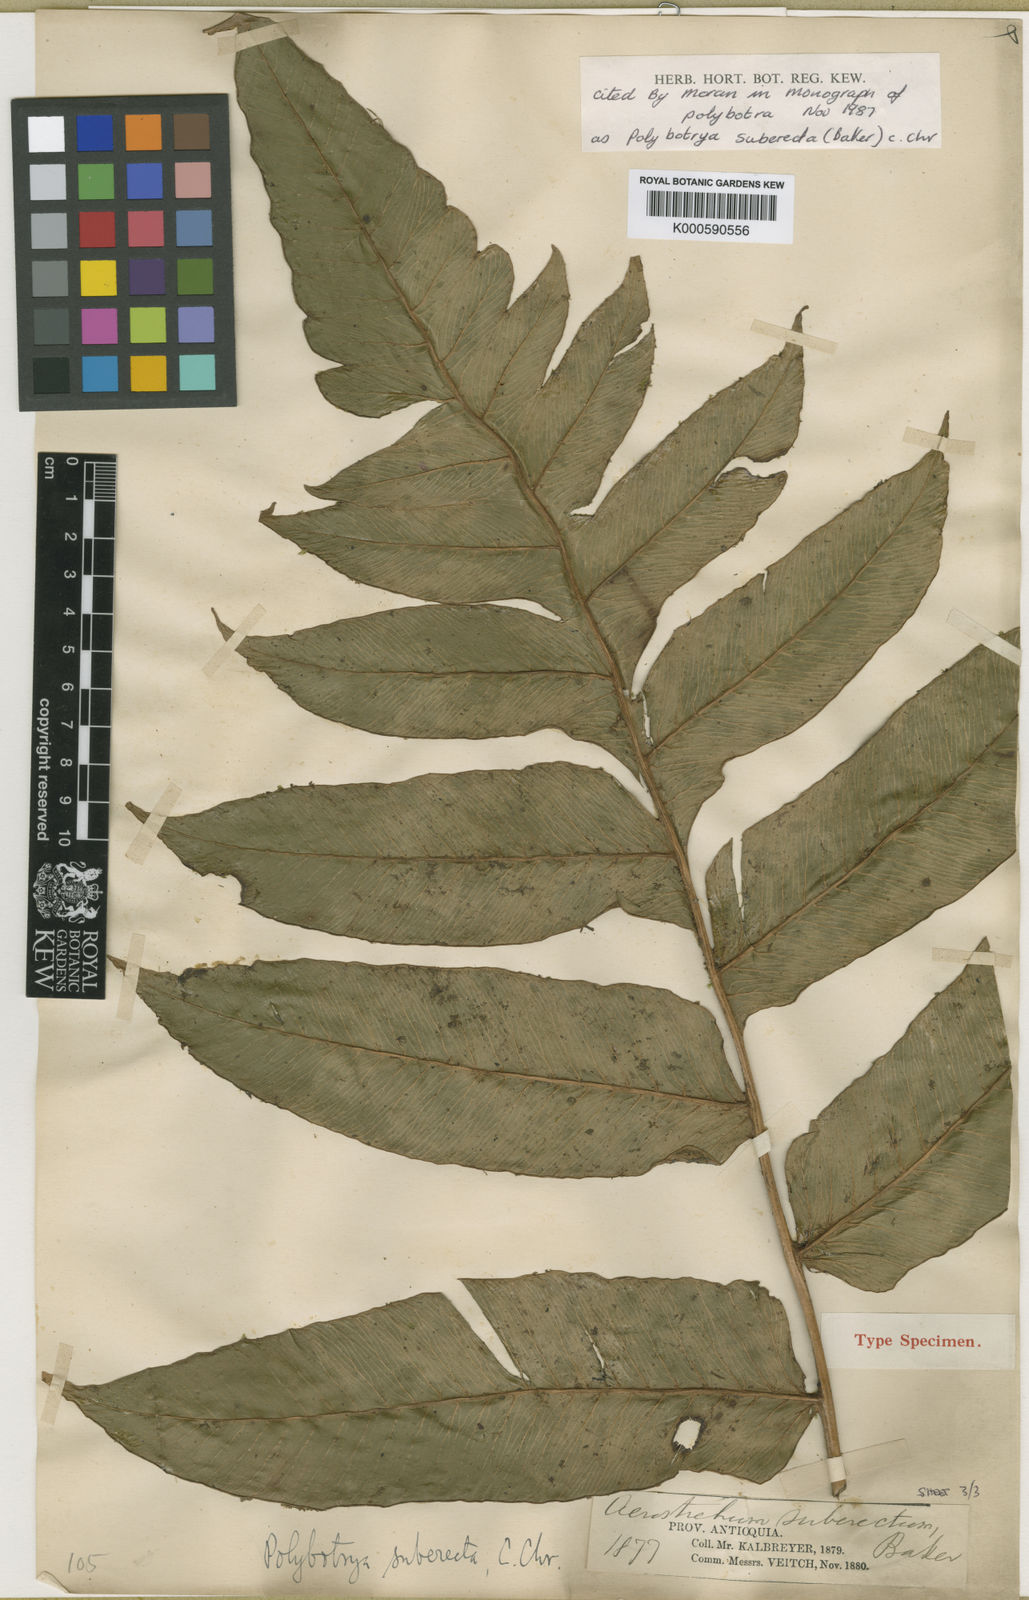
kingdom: Plantae
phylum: Tracheophyta
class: Polypodiopsida
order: Polypodiales
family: Dryopteridaceae
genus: Polybotrya
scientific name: Polybotrya suberecta
